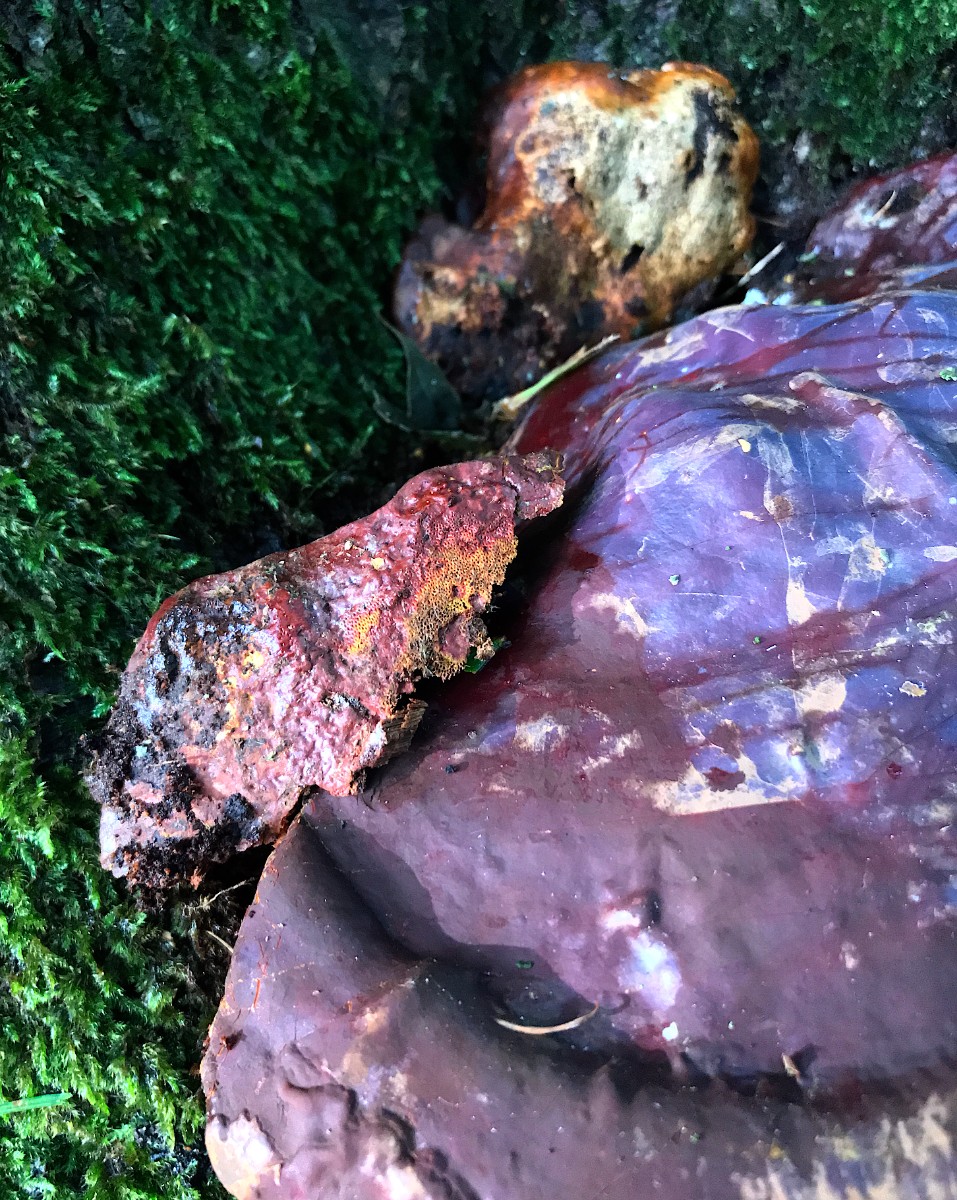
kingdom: Fungi
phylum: Basidiomycota
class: Agaricomycetes
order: Polyporales
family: Polyporaceae
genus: Ganoderma
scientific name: Ganoderma resinaceum
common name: gyldenbrun lakporesvamp
